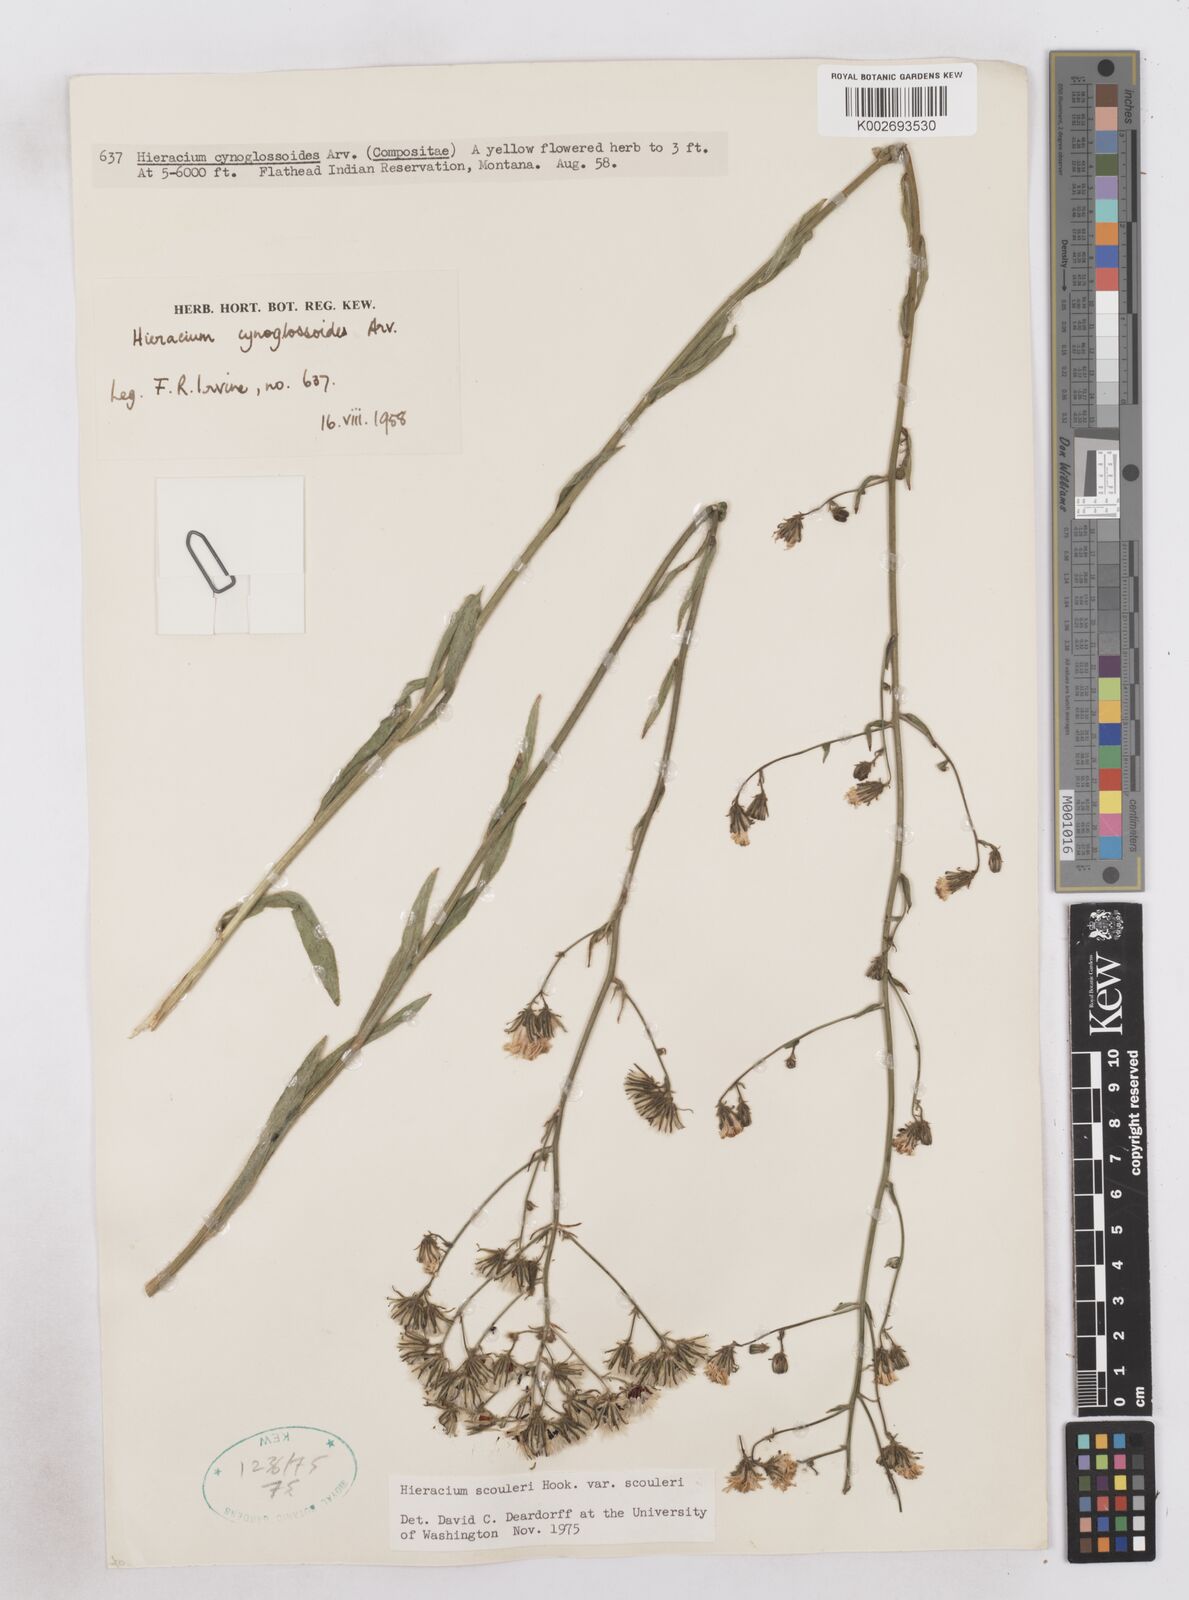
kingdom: Plantae
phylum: Tracheophyta
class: Magnoliopsida
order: Asterales
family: Asteraceae
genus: Hieracium
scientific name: Hieracium scouleri
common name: Hound's-tongue hawkweed
